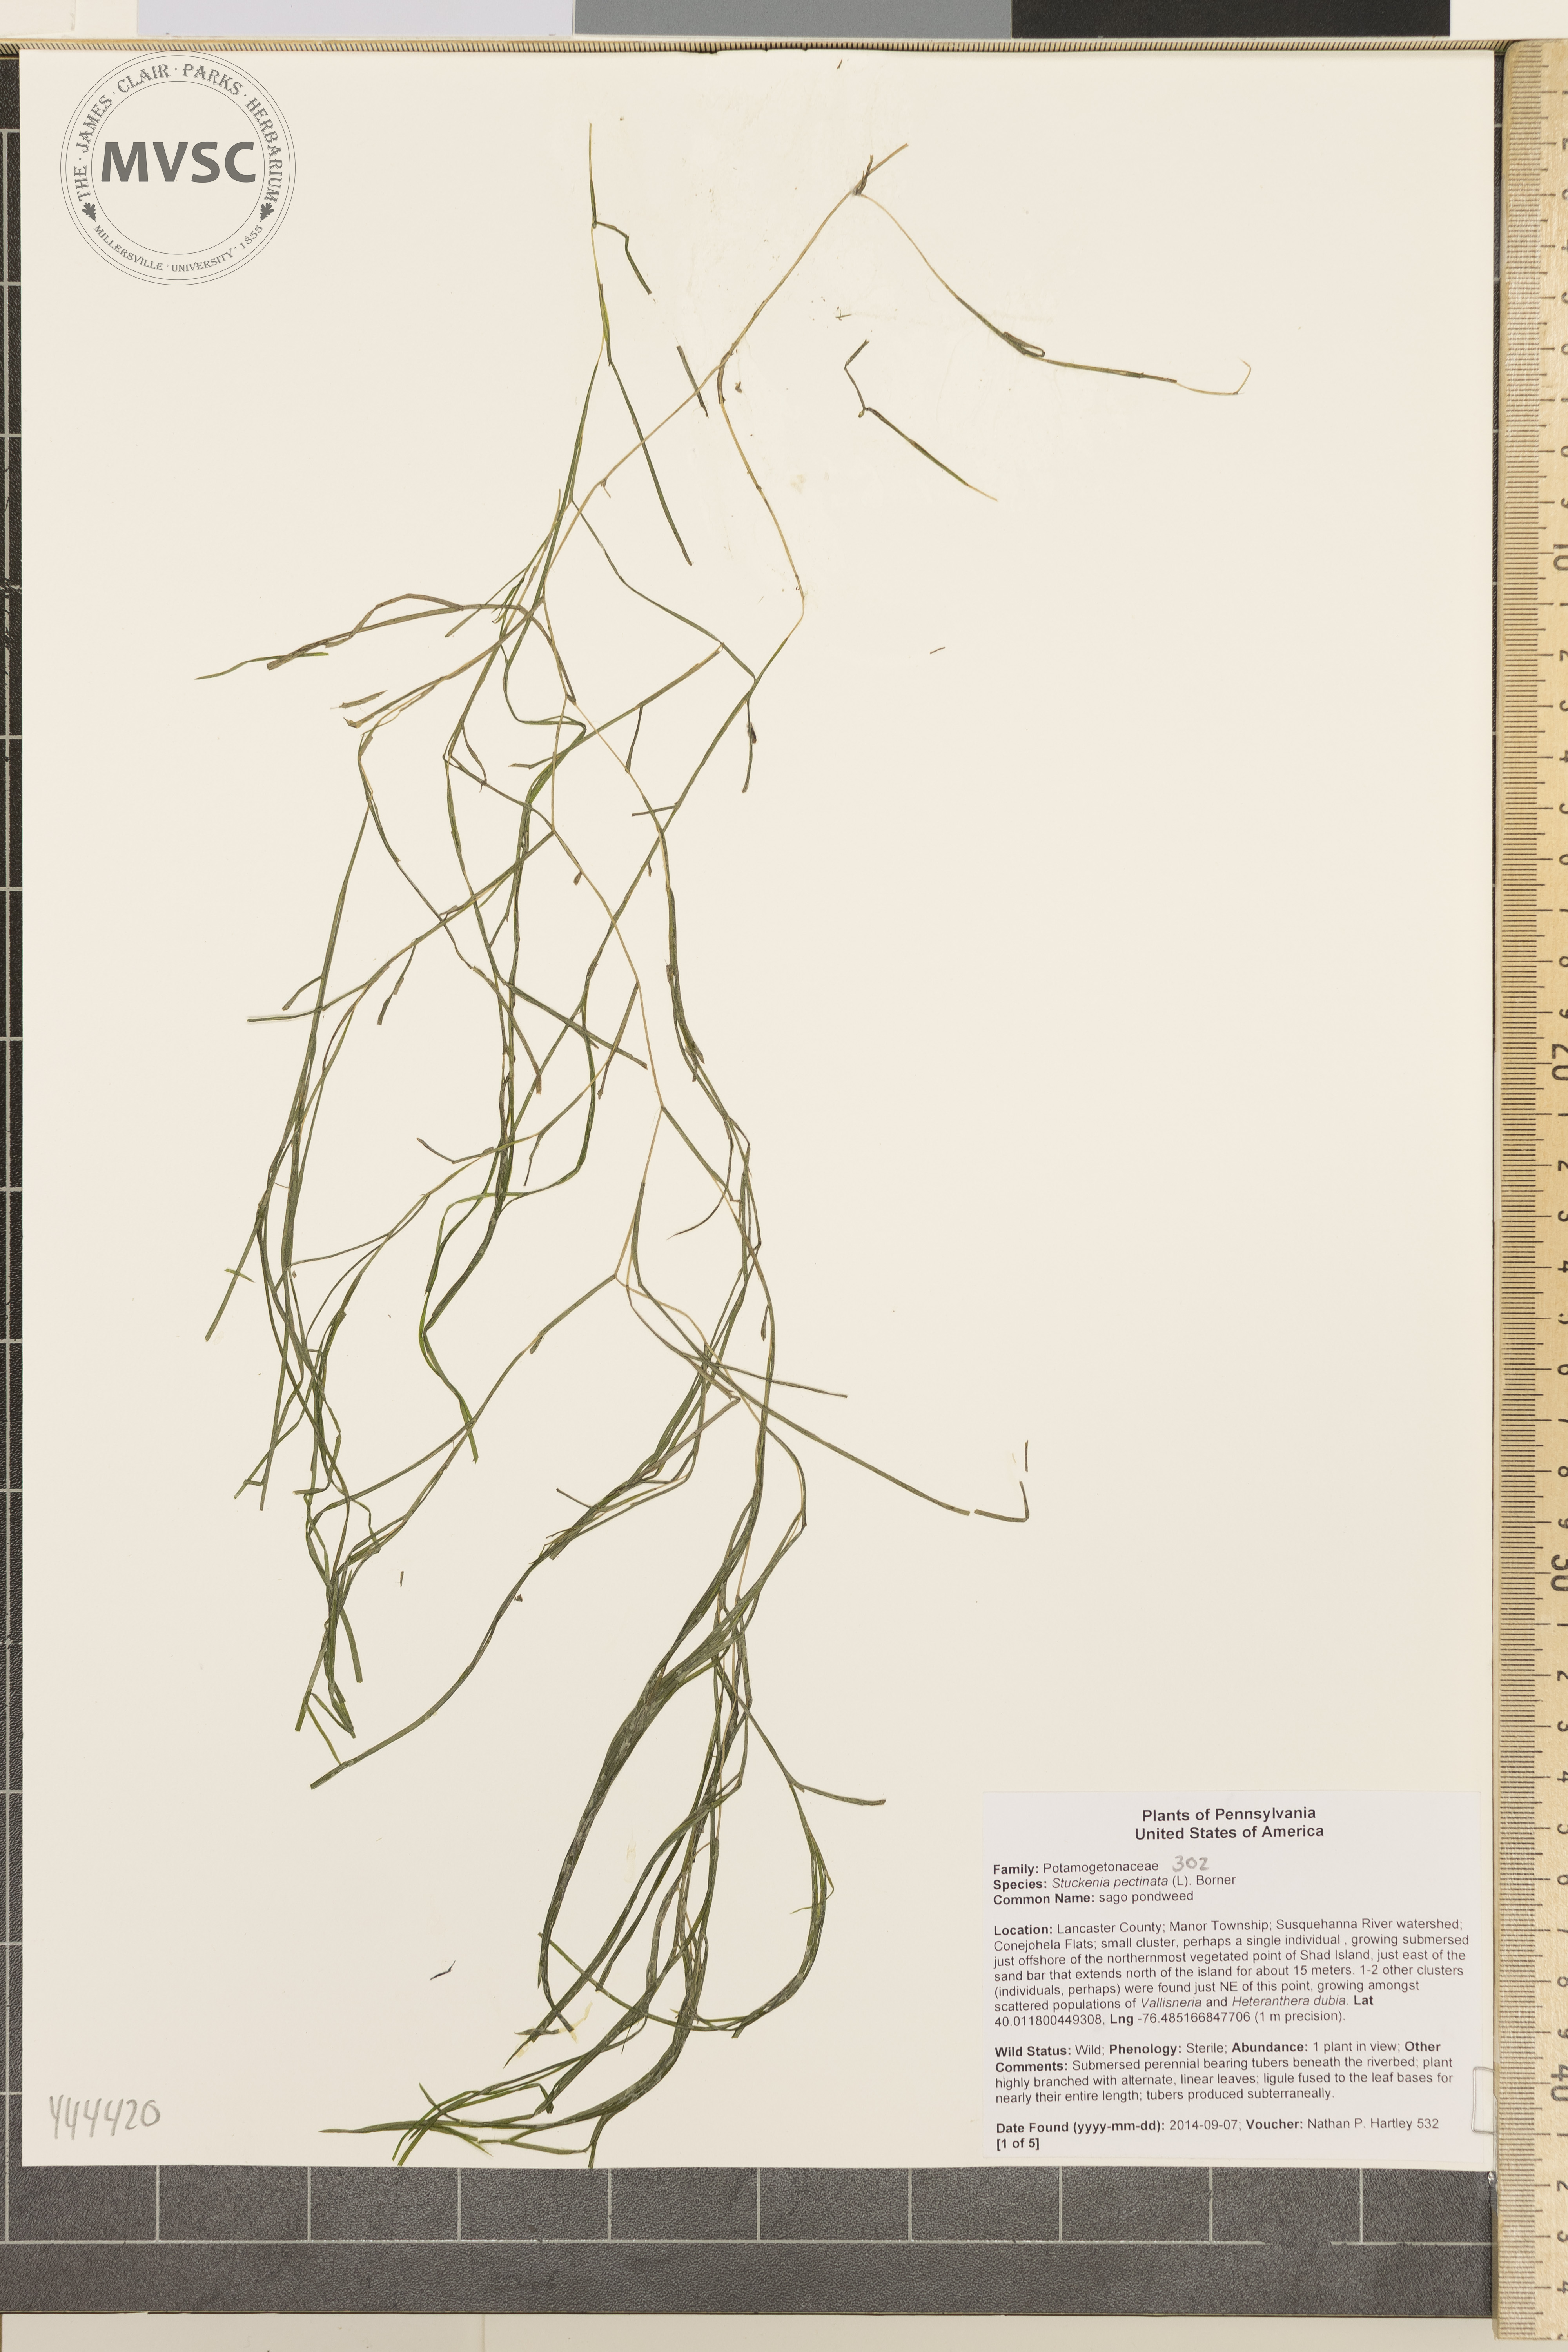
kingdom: Plantae
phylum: Tracheophyta
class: Liliopsida
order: Alismatales
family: Potamogetonaceae
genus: Stuckenia
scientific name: Stuckenia pectinata
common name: Sago pondweed
